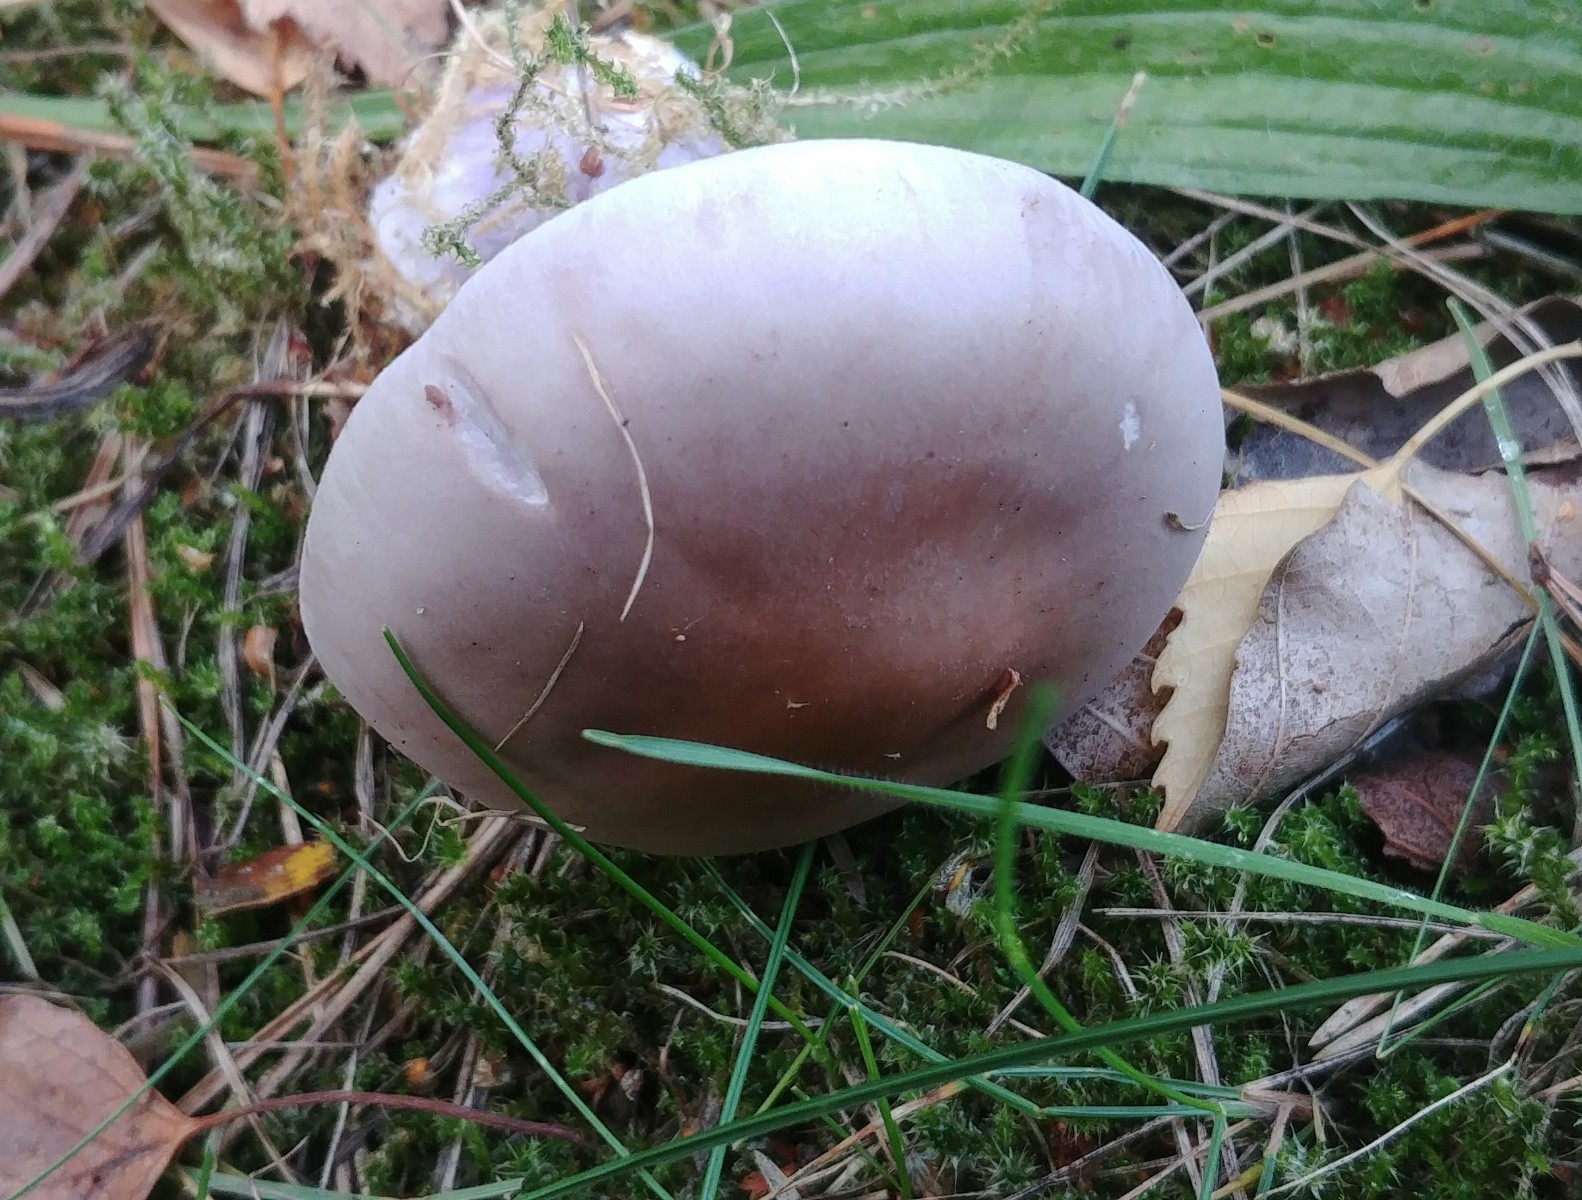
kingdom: Fungi
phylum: Basidiomycota
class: Agaricomycetes
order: Agaricales
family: Tricholomataceae
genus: Lepista
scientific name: Lepista nuda
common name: violet hekseringshat
